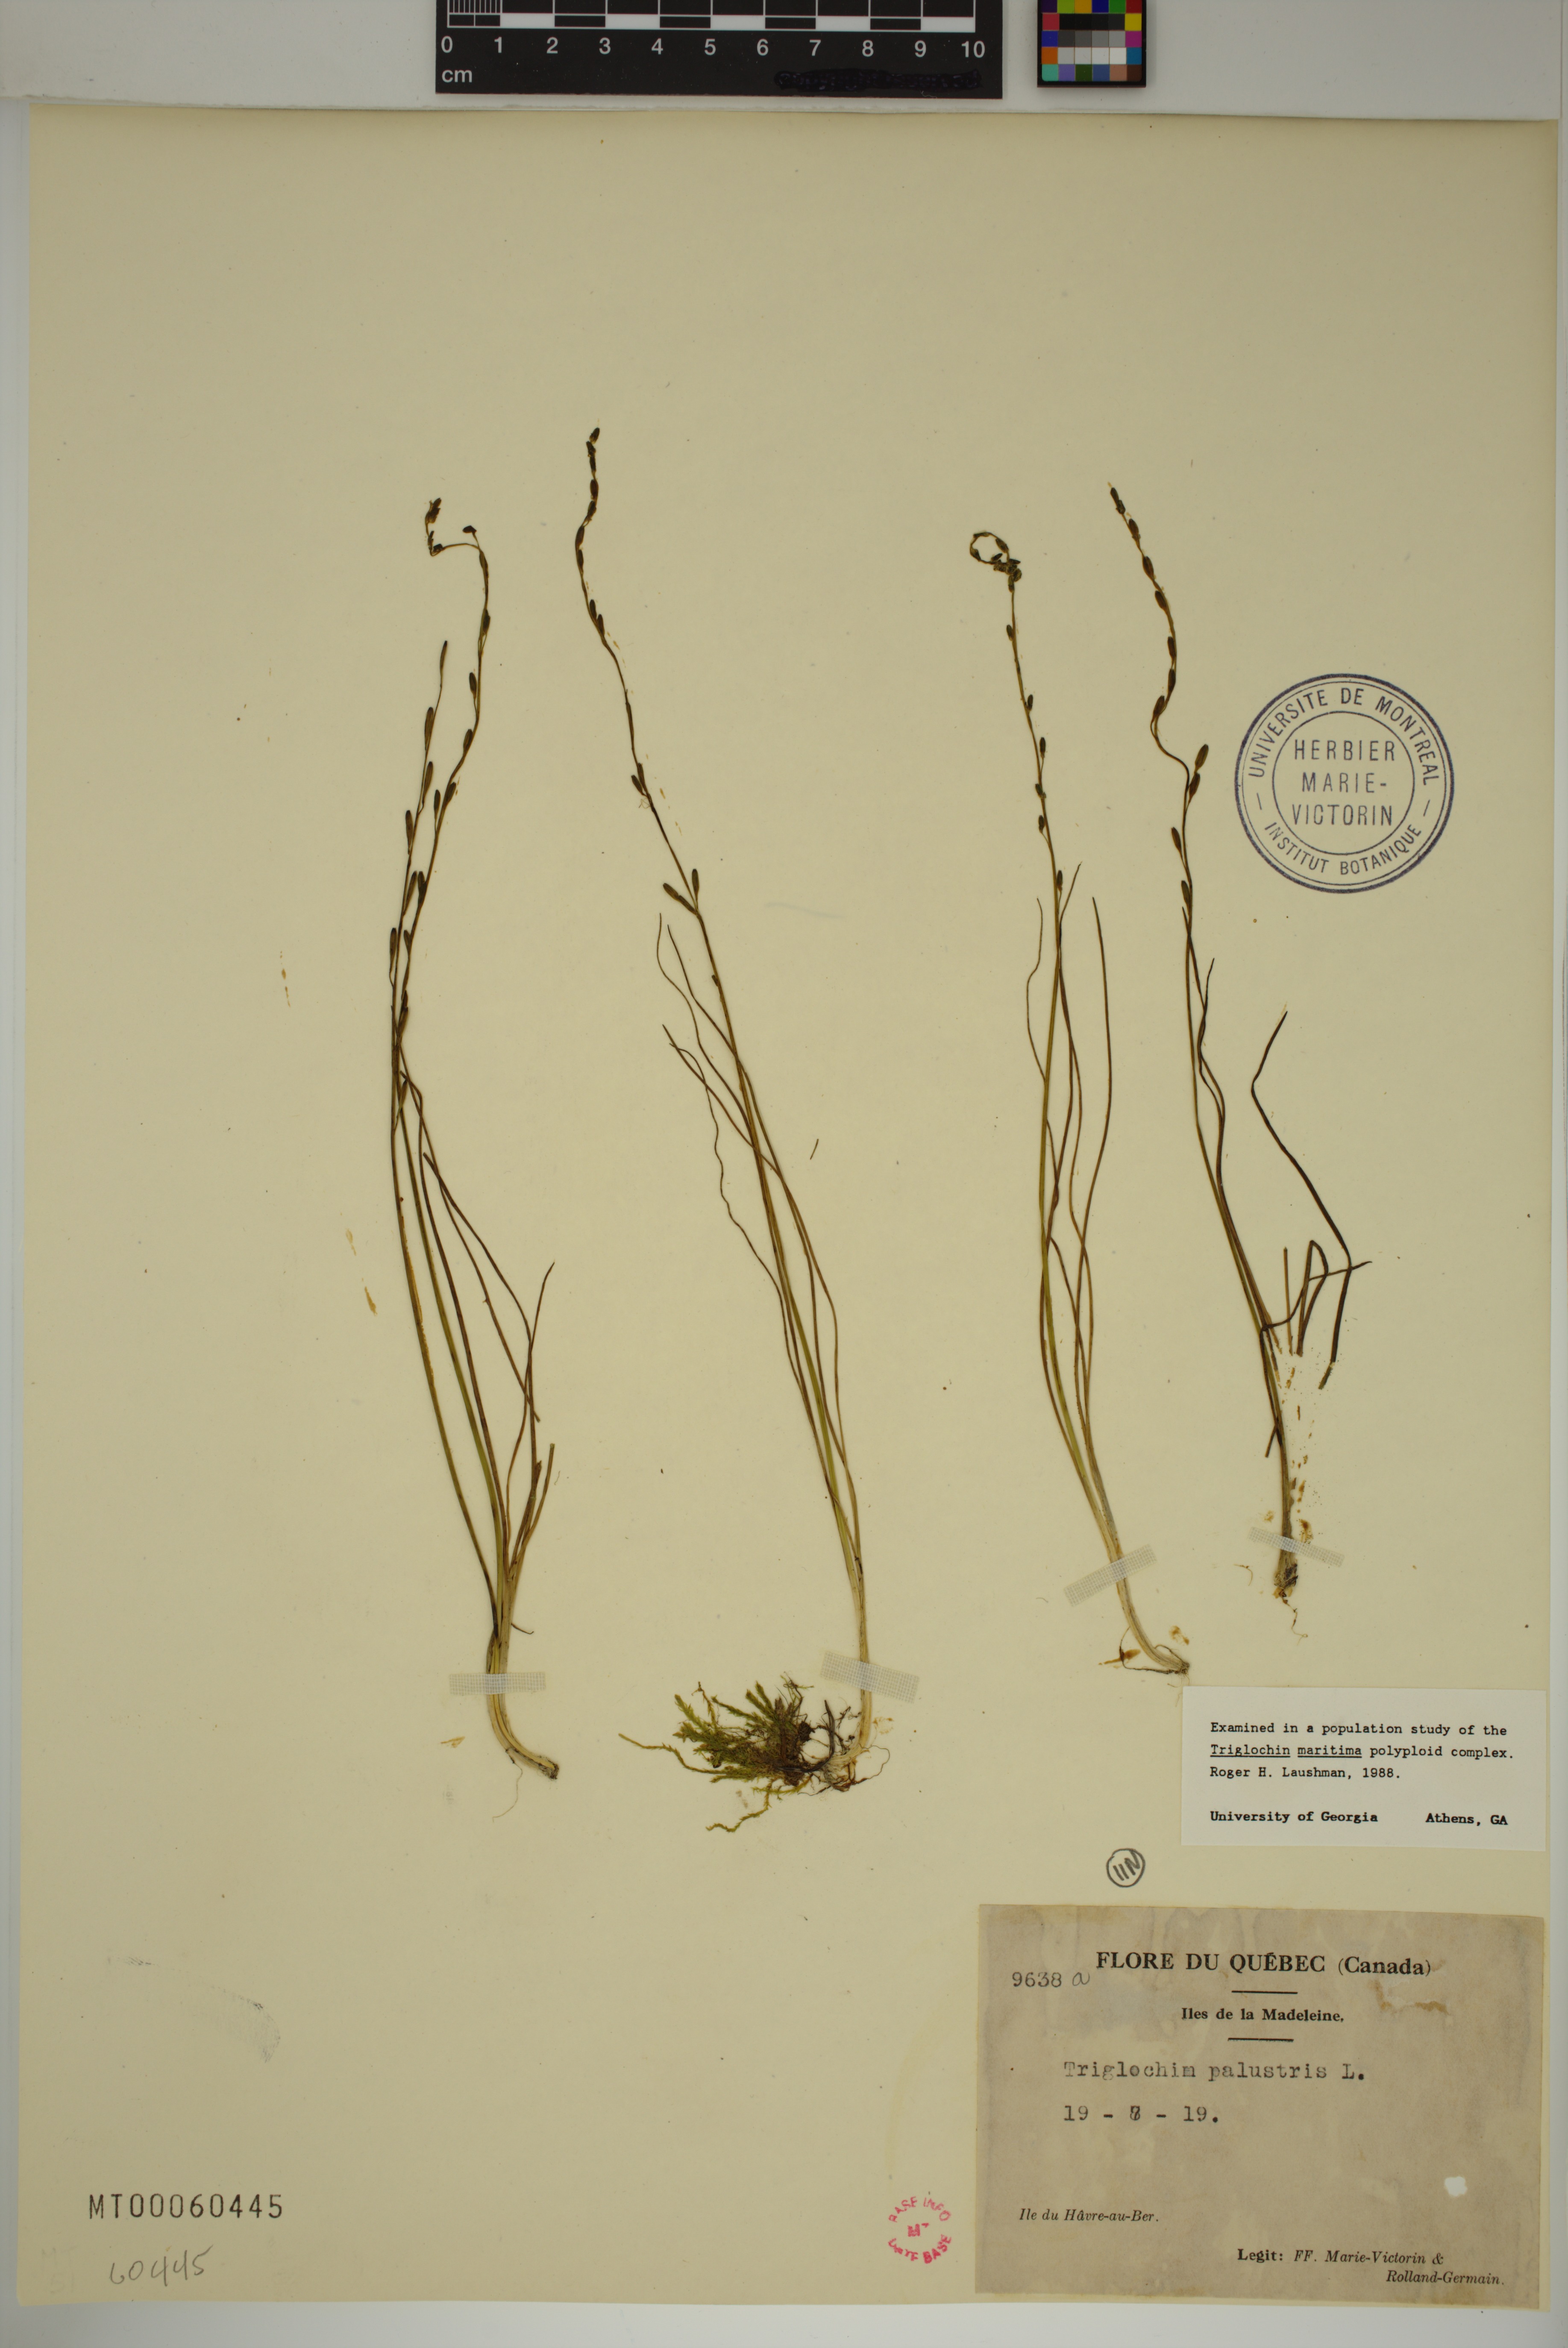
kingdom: Plantae
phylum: Tracheophyta
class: Liliopsida
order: Alismatales
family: Juncaginaceae
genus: Triglochin
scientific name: Triglochin palustris
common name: Marsh arrowgrass
